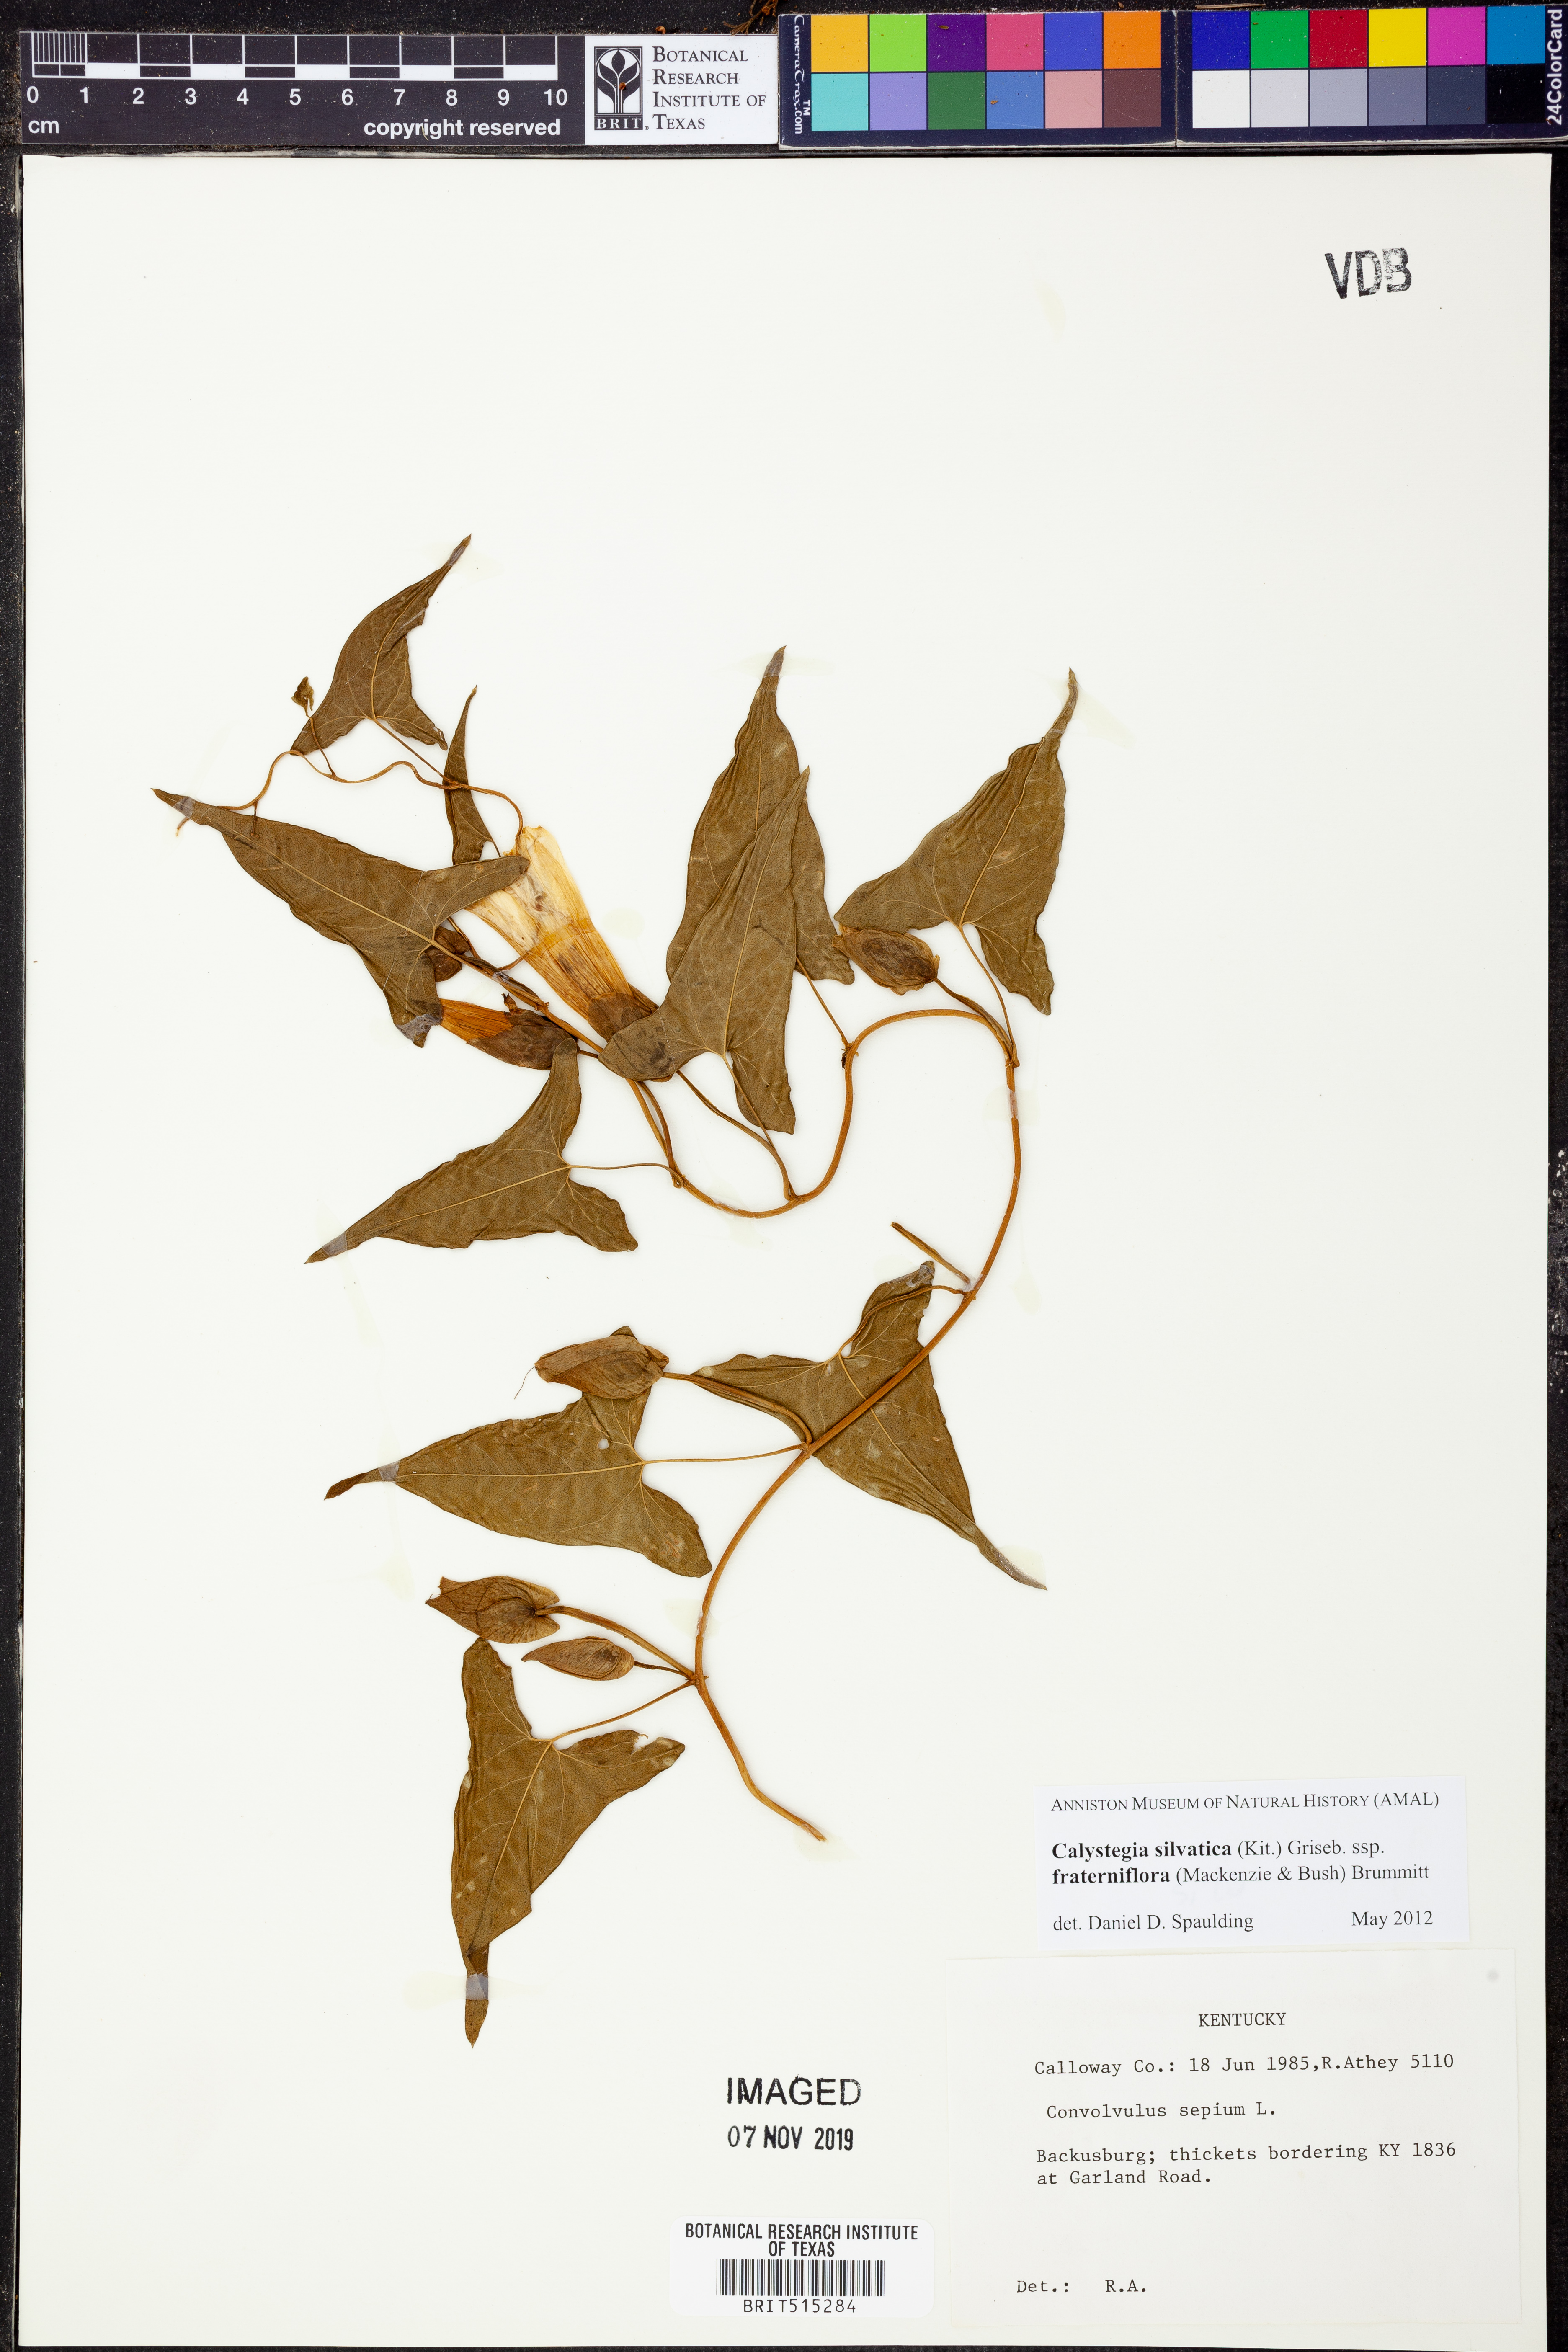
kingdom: Plantae
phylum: Tracheophyta
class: Magnoliopsida
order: Solanales
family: Convolvulaceae
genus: Calystegia
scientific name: Calystegia silvatica
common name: Large bindweed
